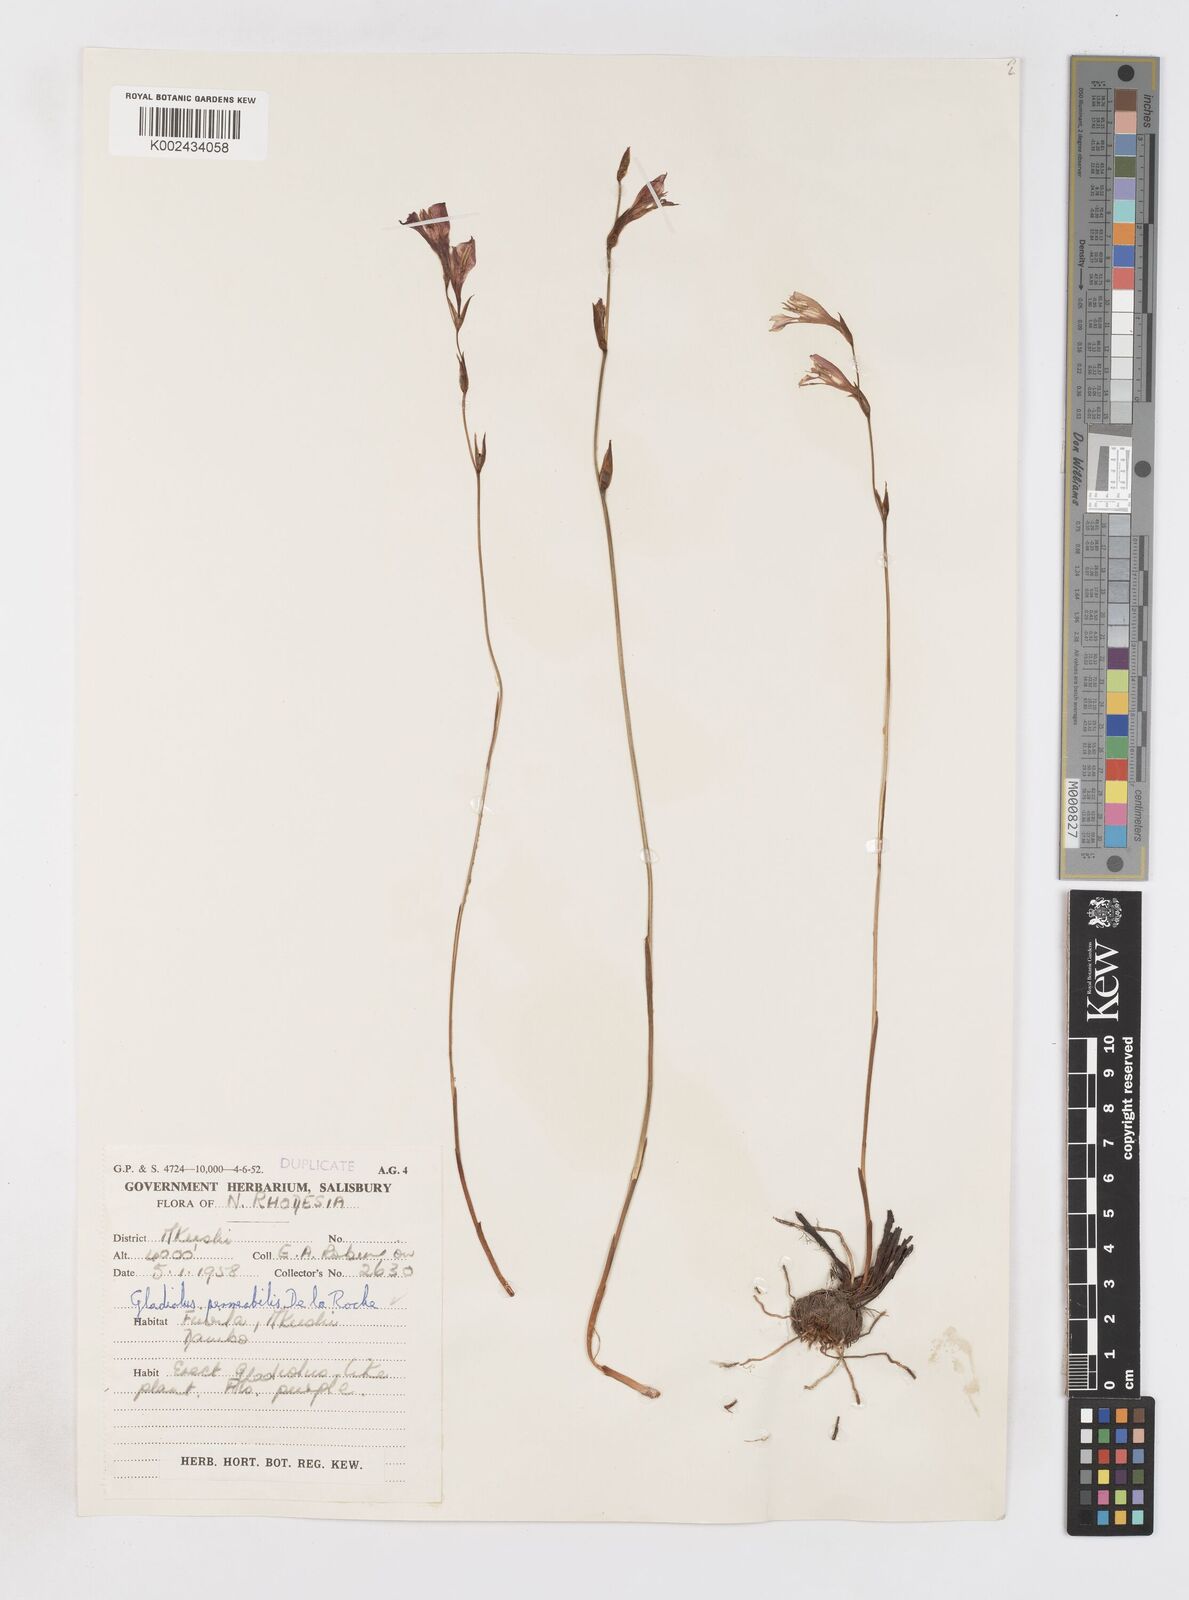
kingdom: Plantae
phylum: Tracheophyta
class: Liliopsida
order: Asparagales
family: Iridaceae
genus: Gladiolus
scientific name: Gladiolus atropurpureus
